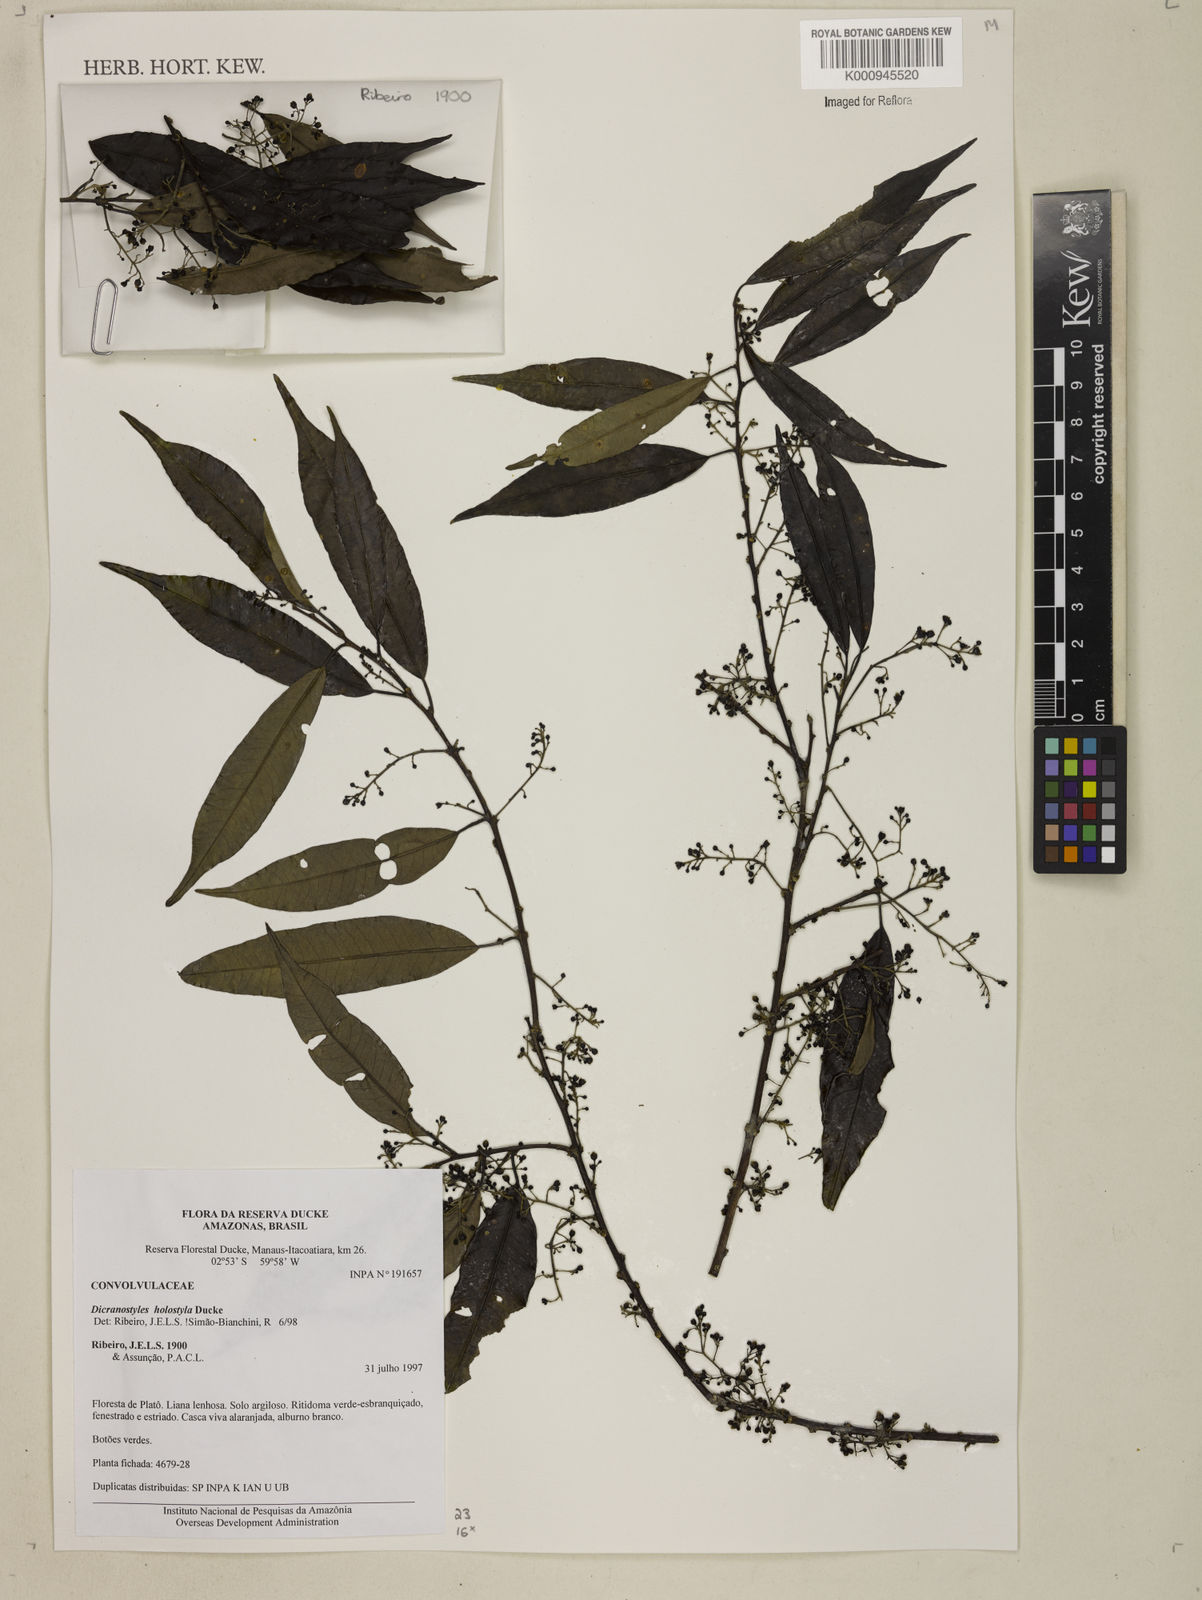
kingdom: Plantae
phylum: Tracheophyta
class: Magnoliopsida
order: Solanales
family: Convolvulaceae
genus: Dicranostyles
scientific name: Dicranostyles holostyla
